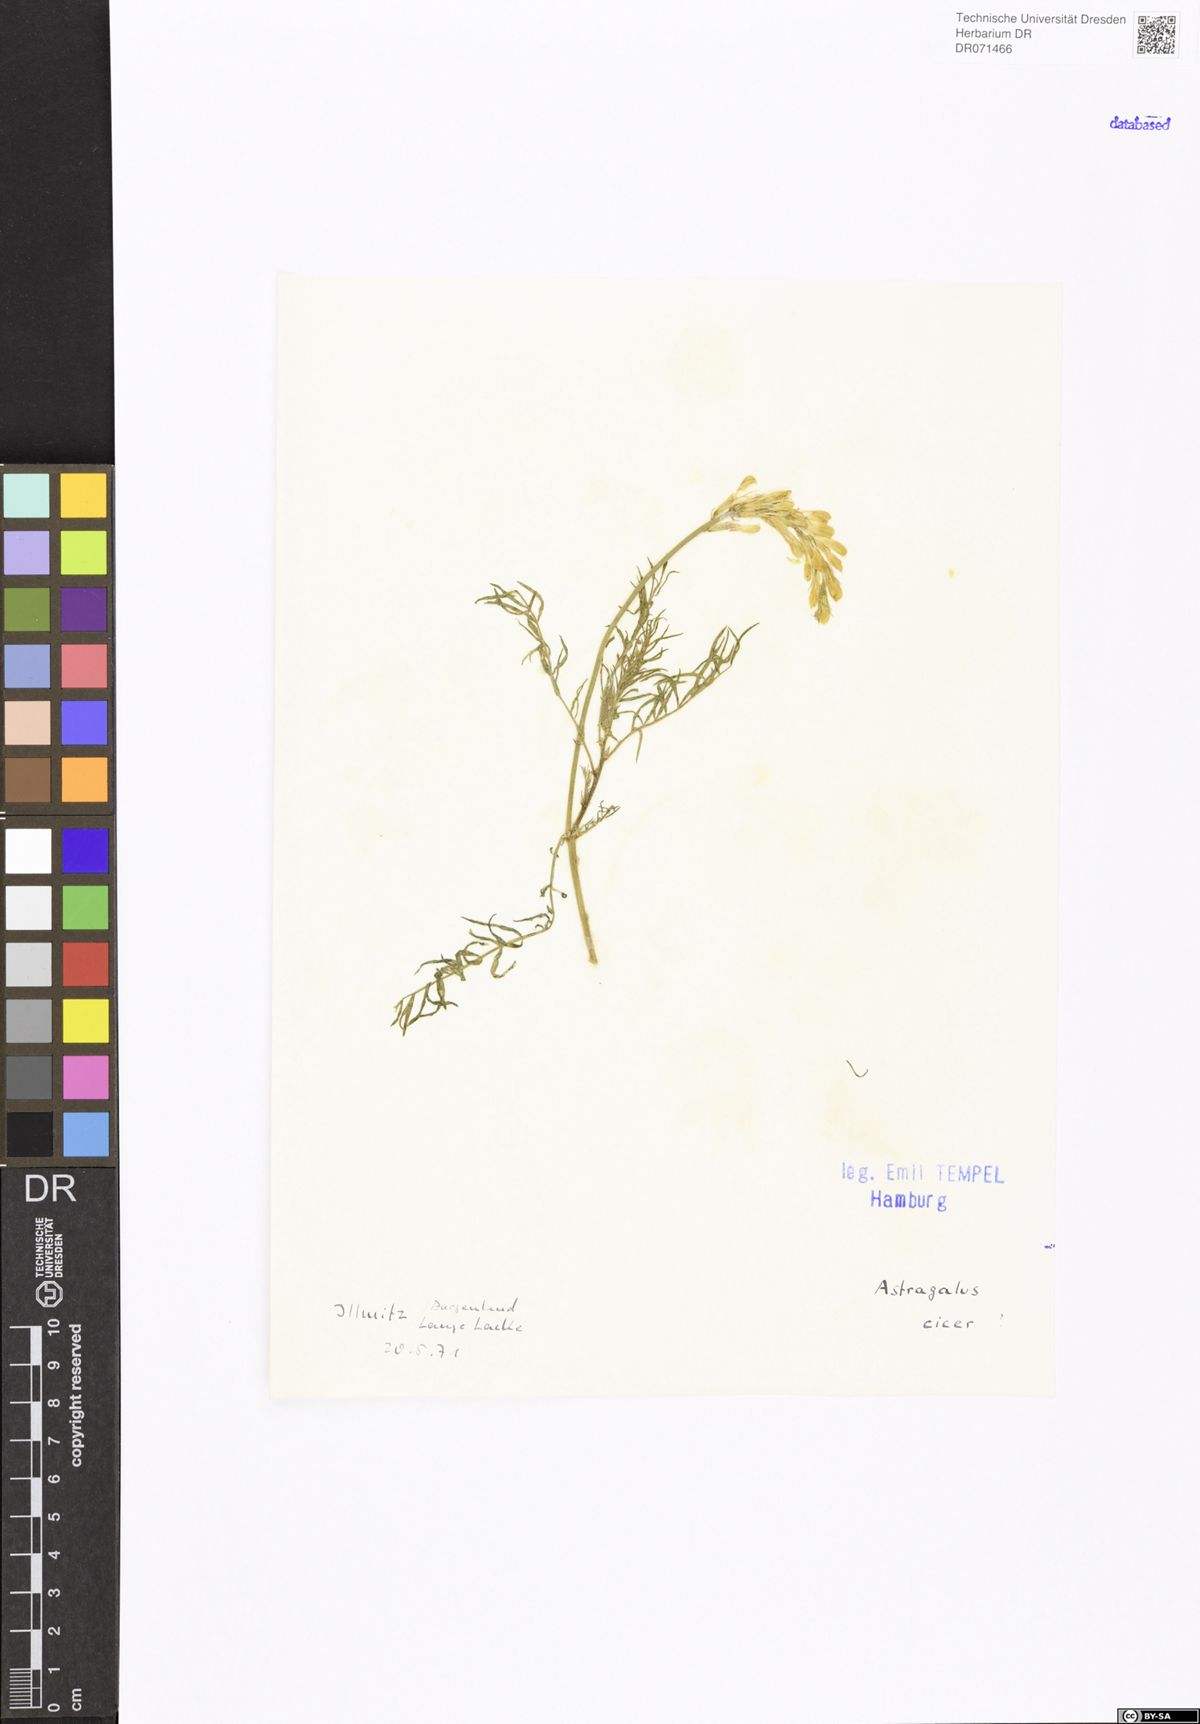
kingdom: Plantae
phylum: Tracheophyta
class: Magnoliopsida
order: Fabales
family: Fabaceae
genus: Astragalus
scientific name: Astragalus cicer
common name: Chick-pea milk-vetch
